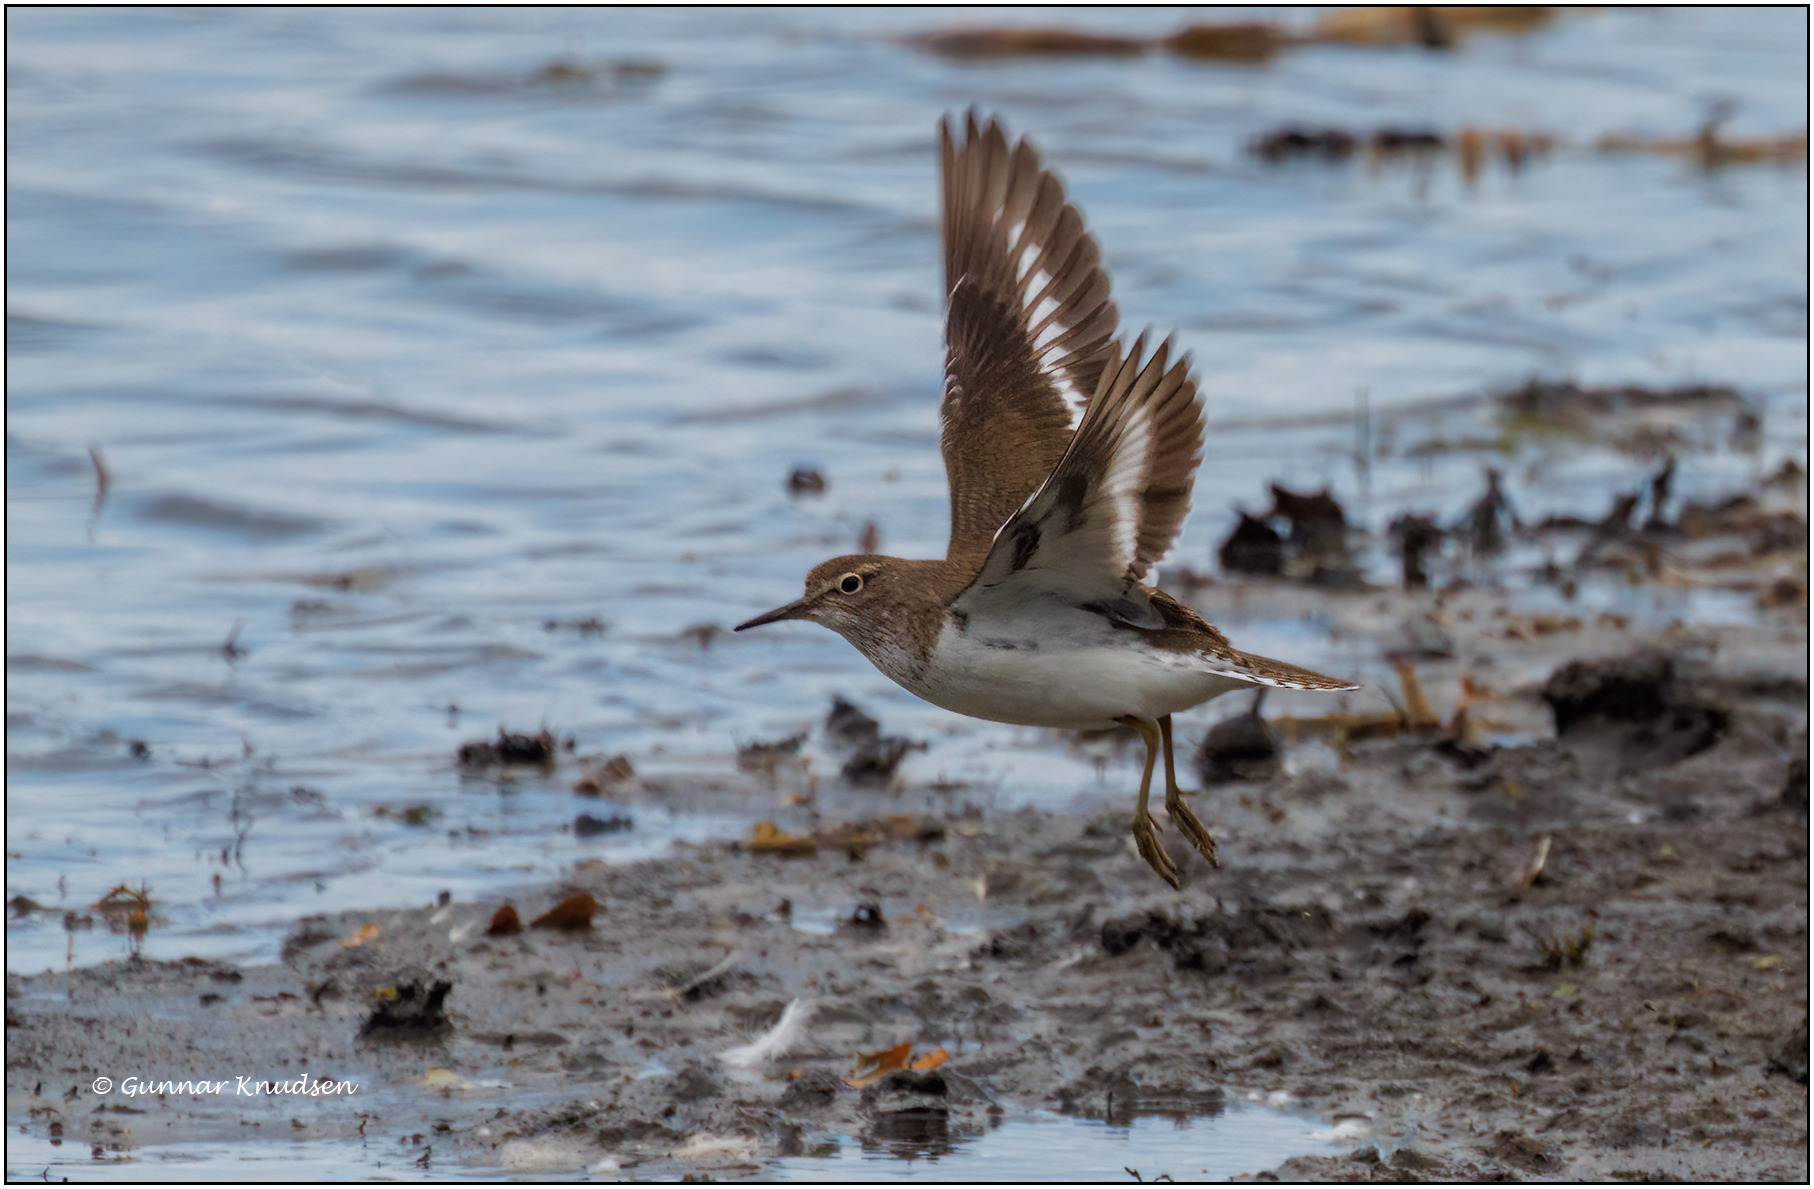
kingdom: Animalia
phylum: Chordata
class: Aves
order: Charadriiformes
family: Scolopacidae
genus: Actitis
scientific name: Actitis hypoleucos
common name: Mudderklire
